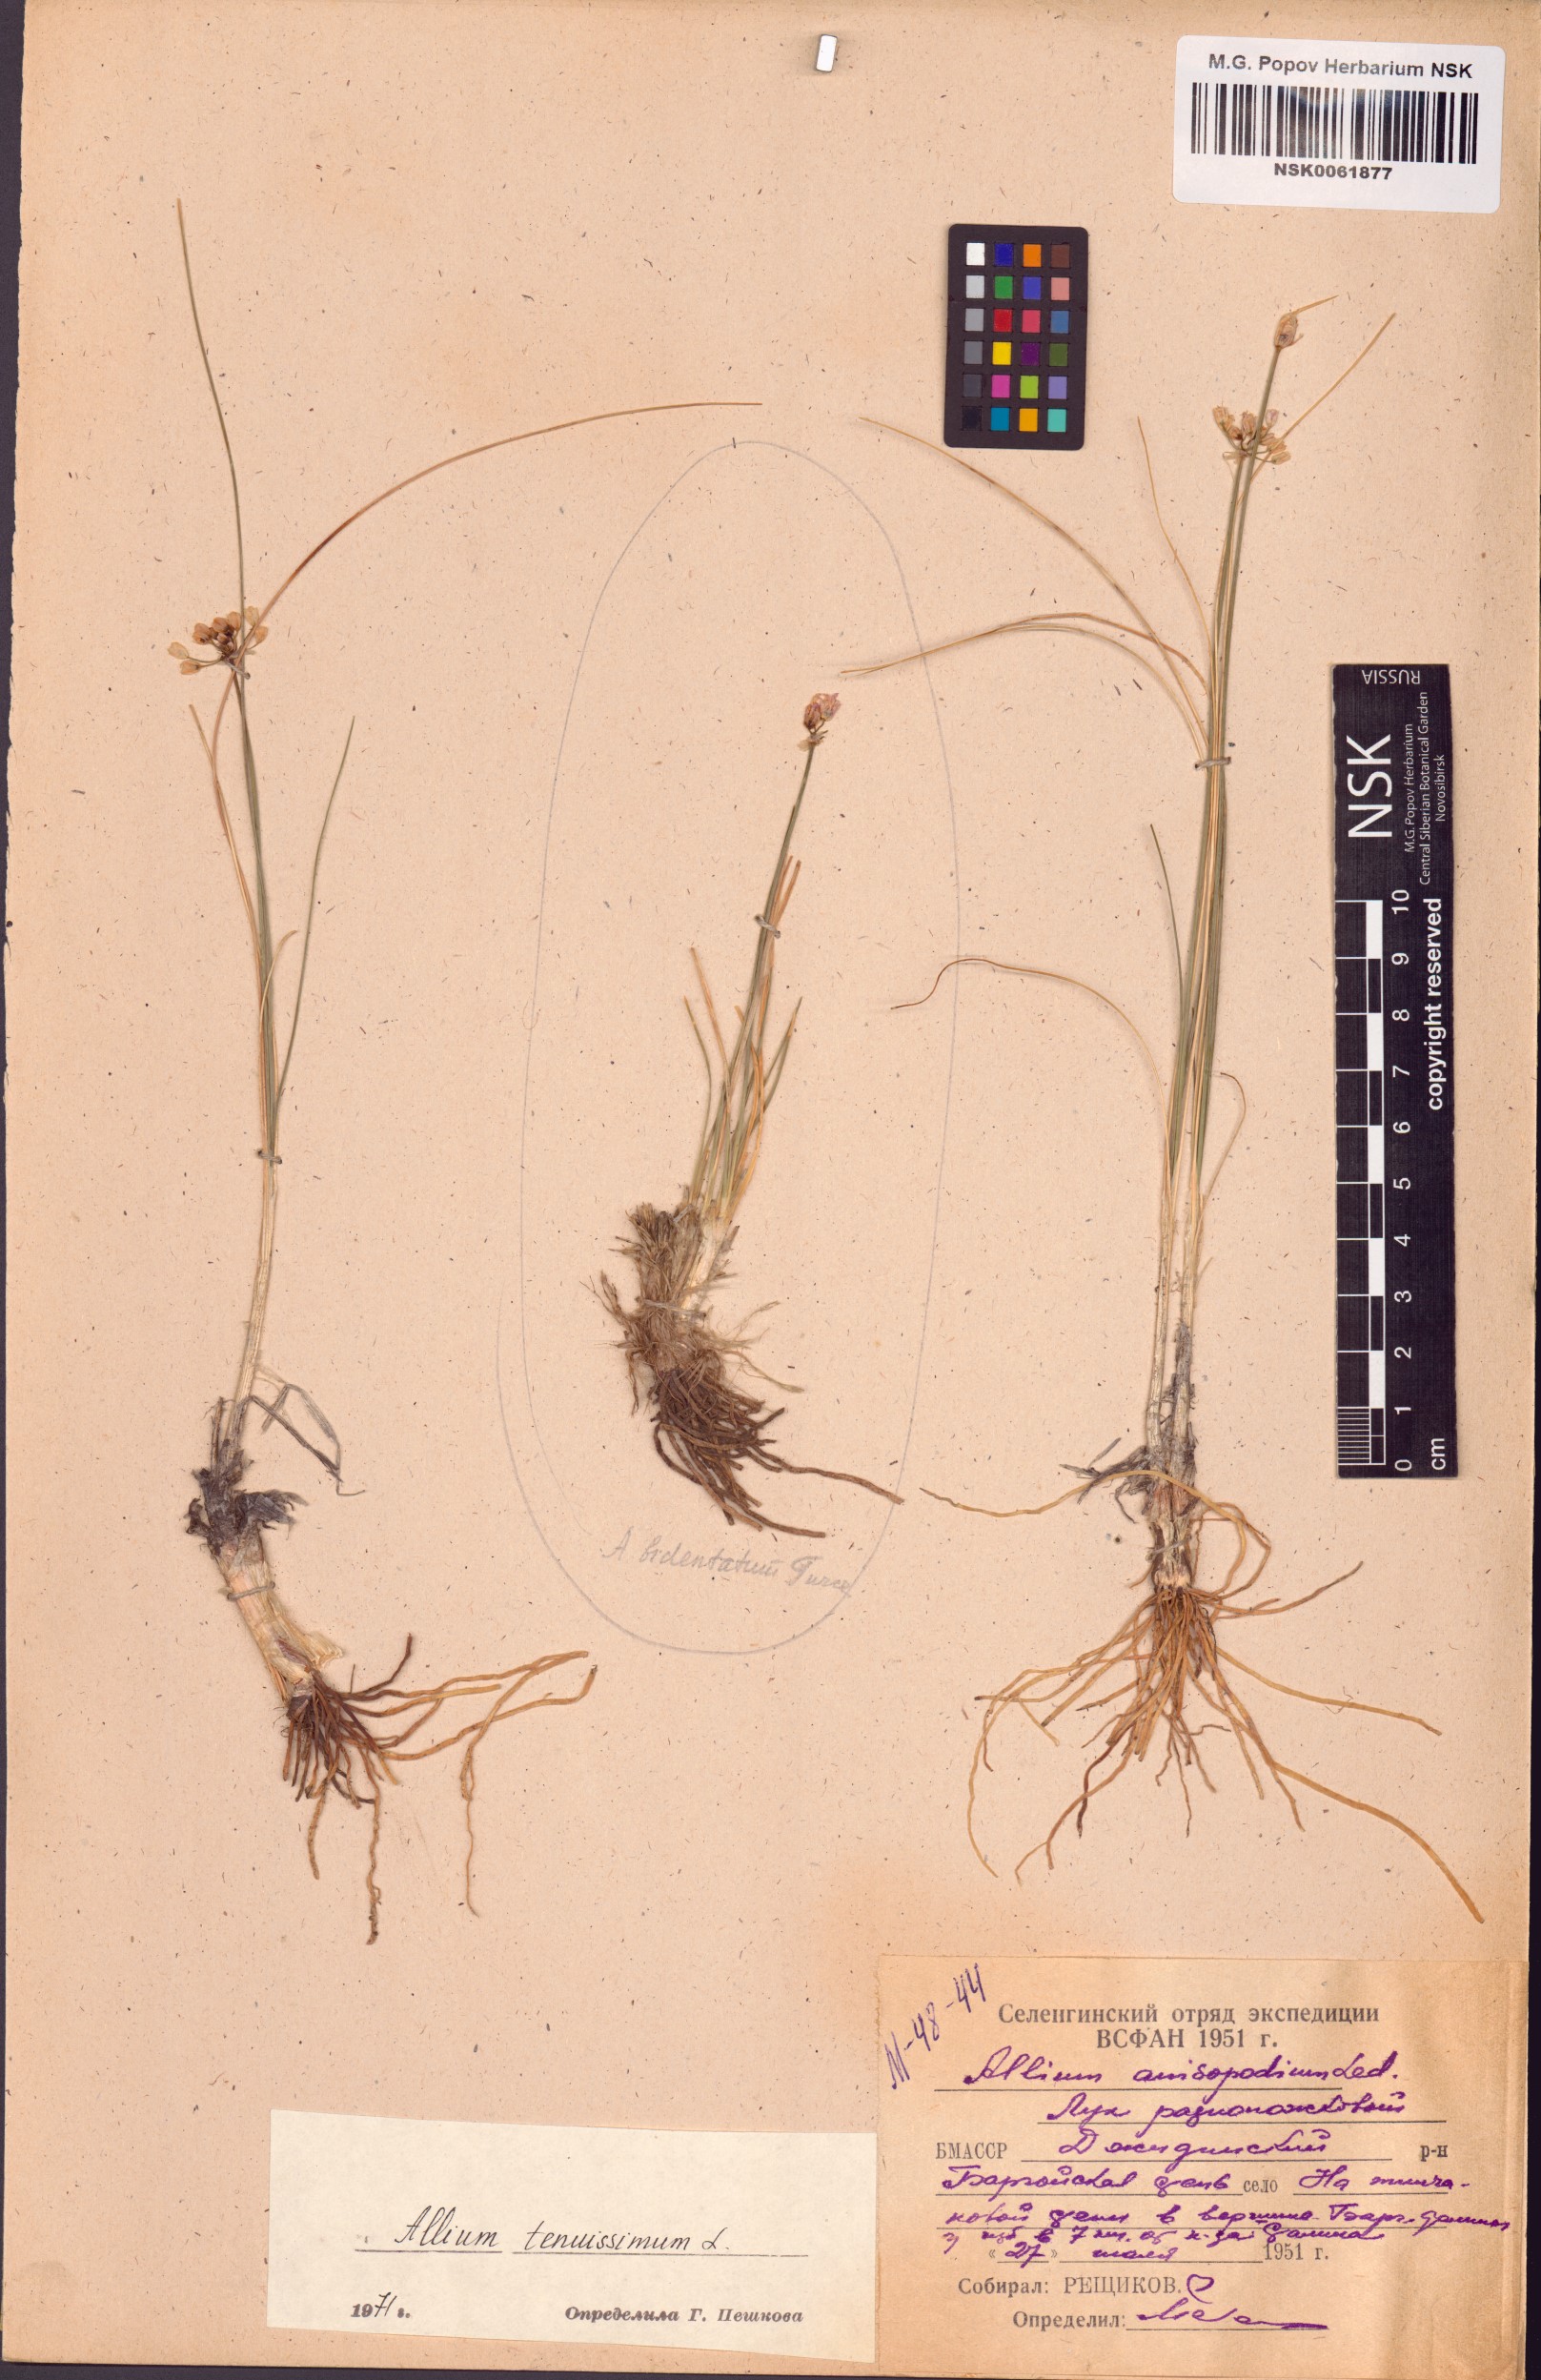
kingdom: Plantae
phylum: Tracheophyta
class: Liliopsida
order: Asparagales
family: Amaryllidaceae
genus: Allium
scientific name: Allium tenuissimum
